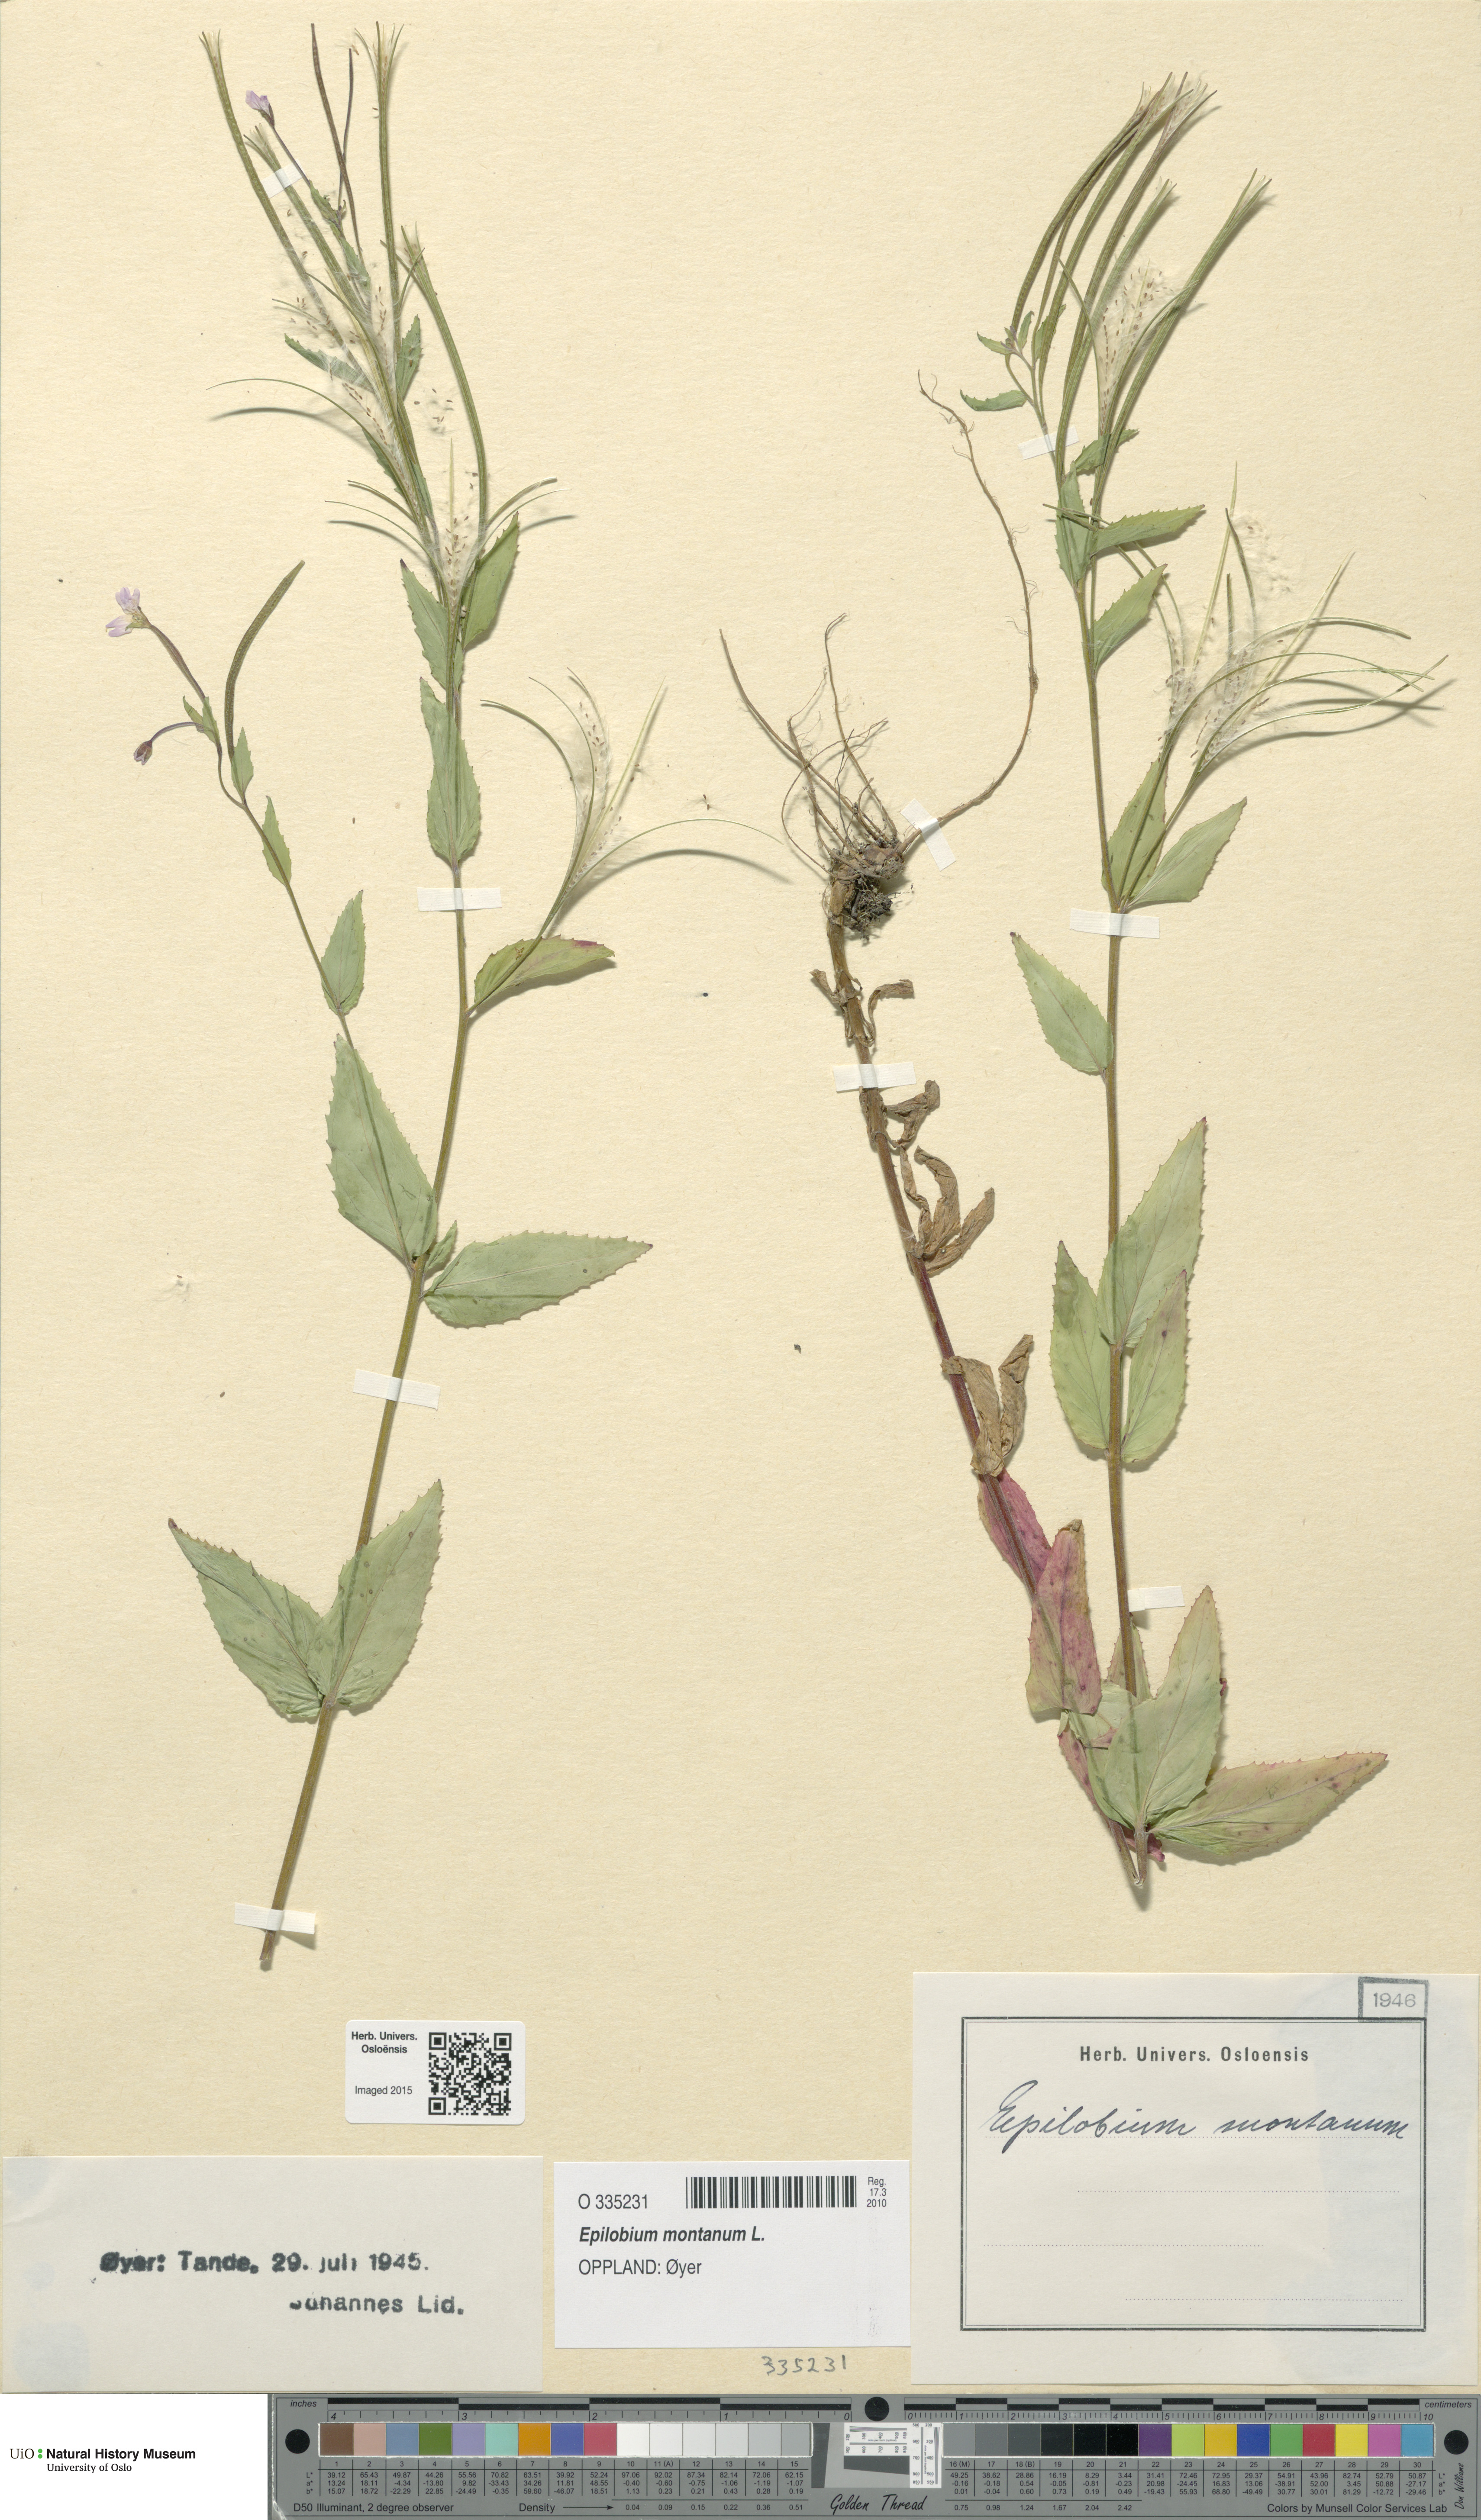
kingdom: Plantae
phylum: Tracheophyta
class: Magnoliopsida
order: Myrtales
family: Onagraceae
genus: Epilobium
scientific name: Epilobium montanum
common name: Broad-leaved willowherb
